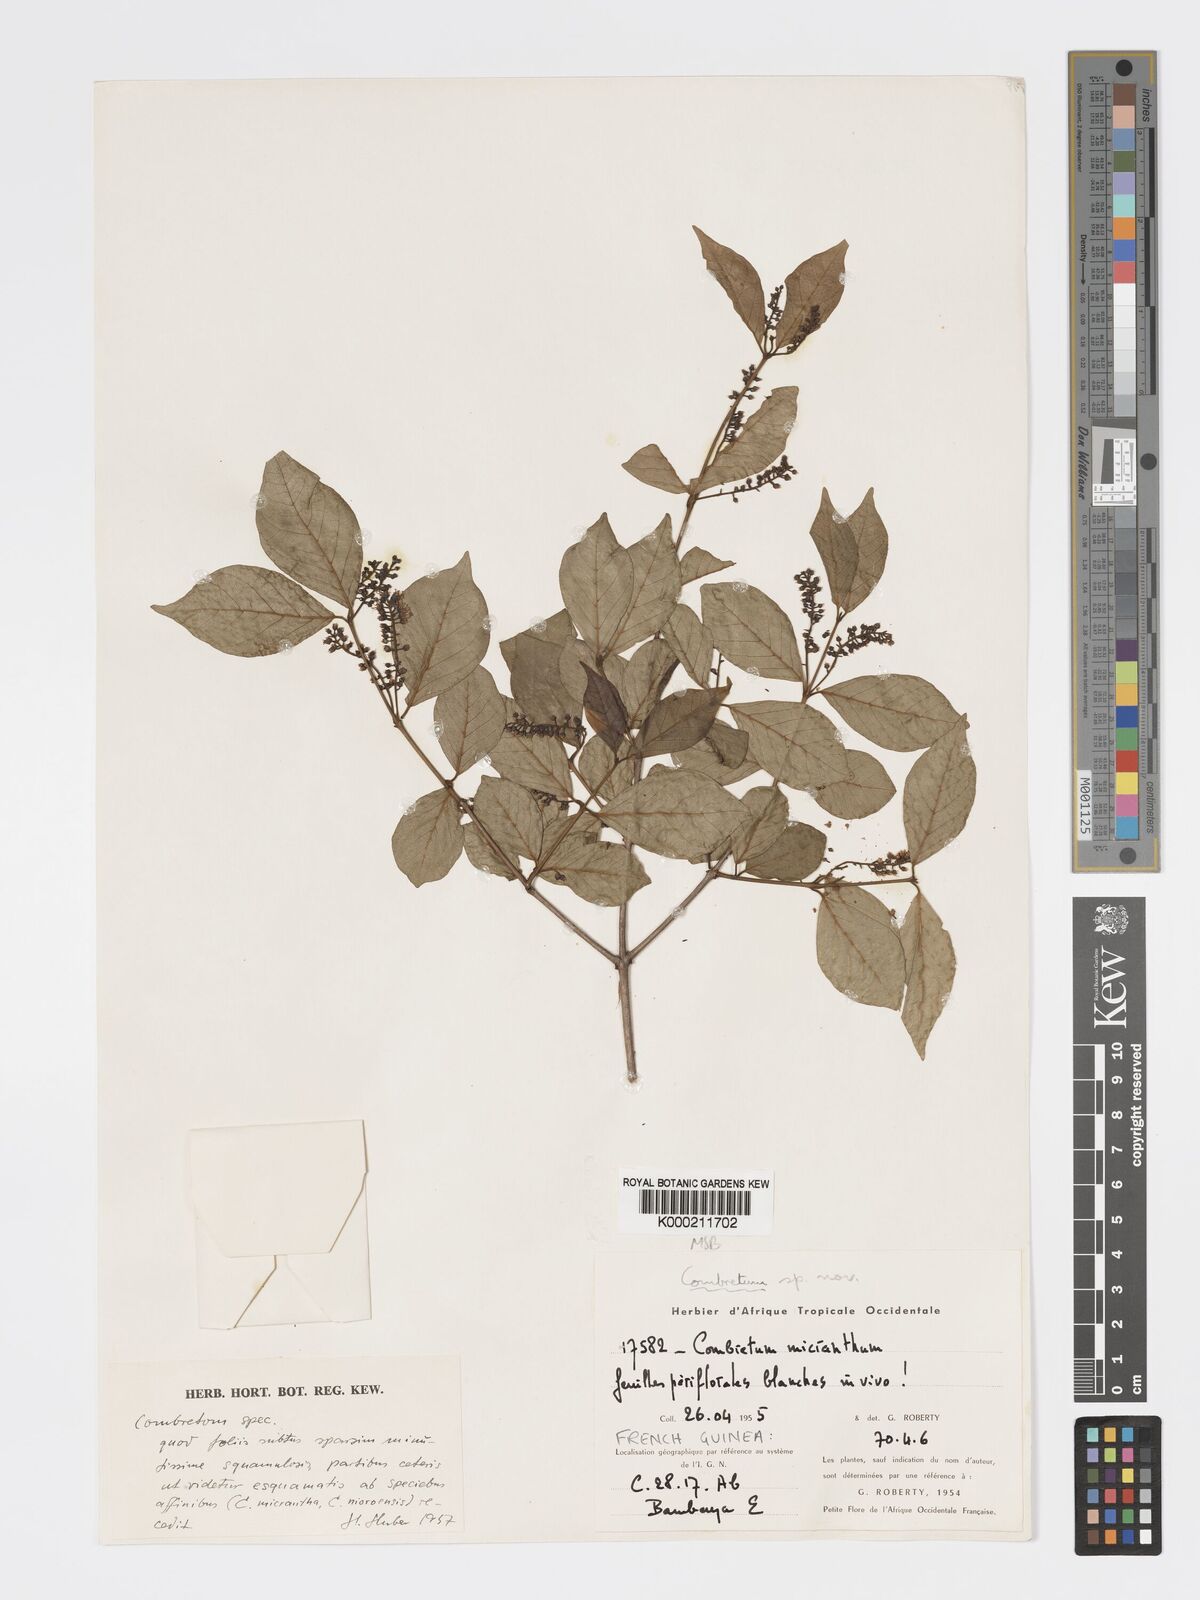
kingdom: Plantae
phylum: Tracheophyta
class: Magnoliopsida
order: Myrtales
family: Combretaceae
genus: Combretum
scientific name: Combretum
